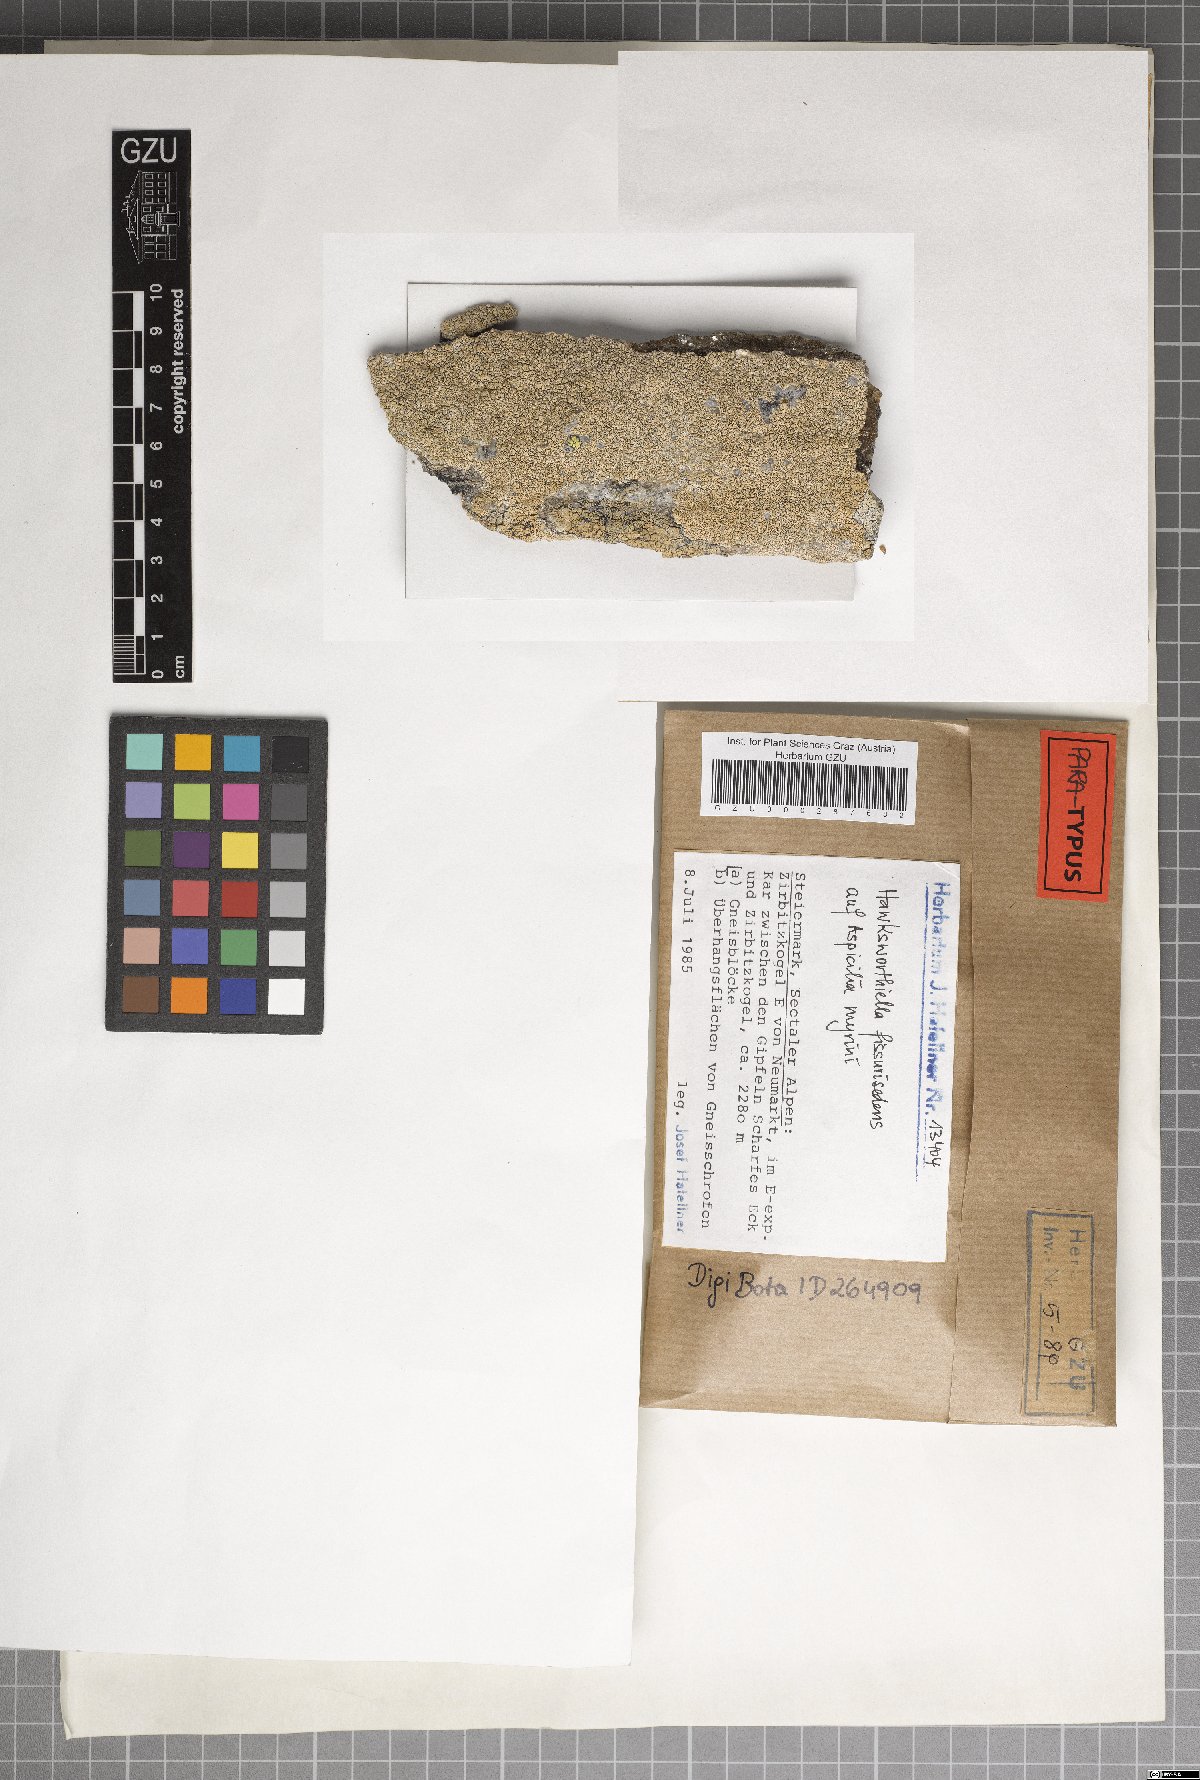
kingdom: Fungi
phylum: Ascomycota
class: Eurotiomycetes
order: Verrucariales
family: Adelococcaceae
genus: Sagediopsis
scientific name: Sagediopsis fissurisedens
